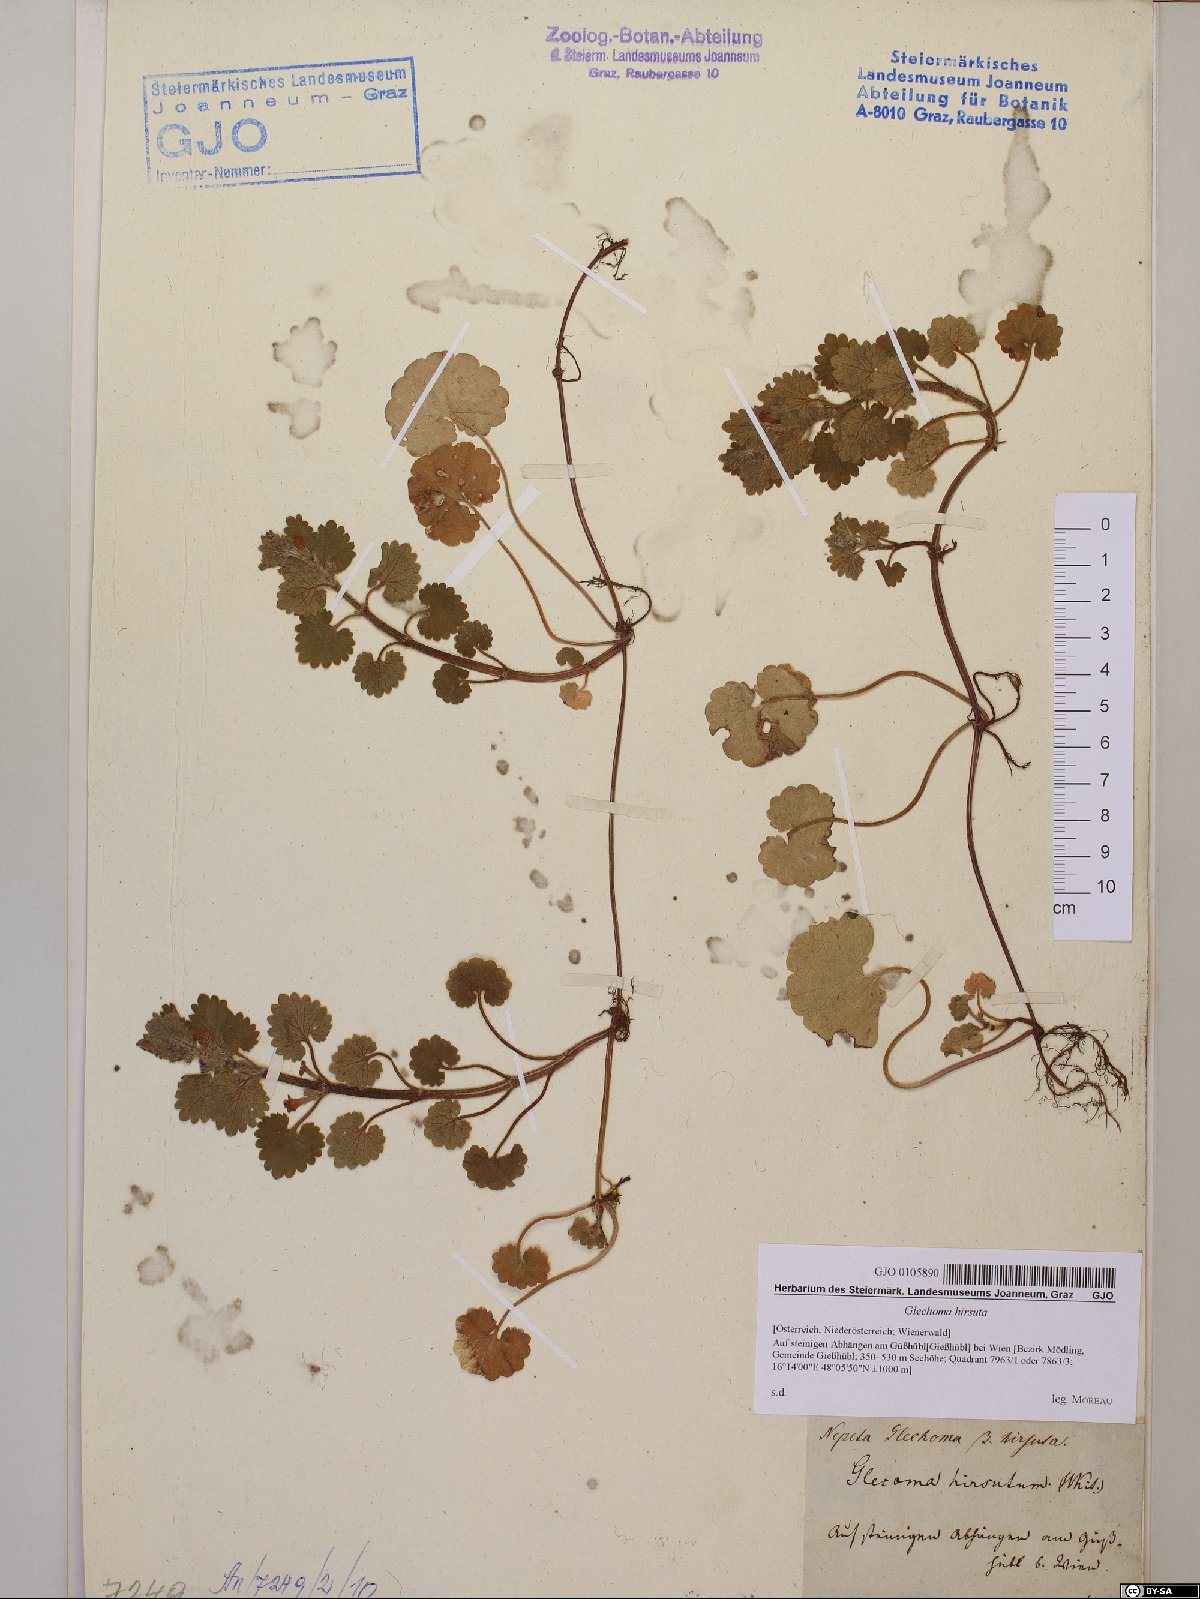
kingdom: Plantae
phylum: Tracheophyta
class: Magnoliopsida
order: Lamiales
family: Lamiaceae
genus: Glechoma
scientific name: Glechoma hirsuta
